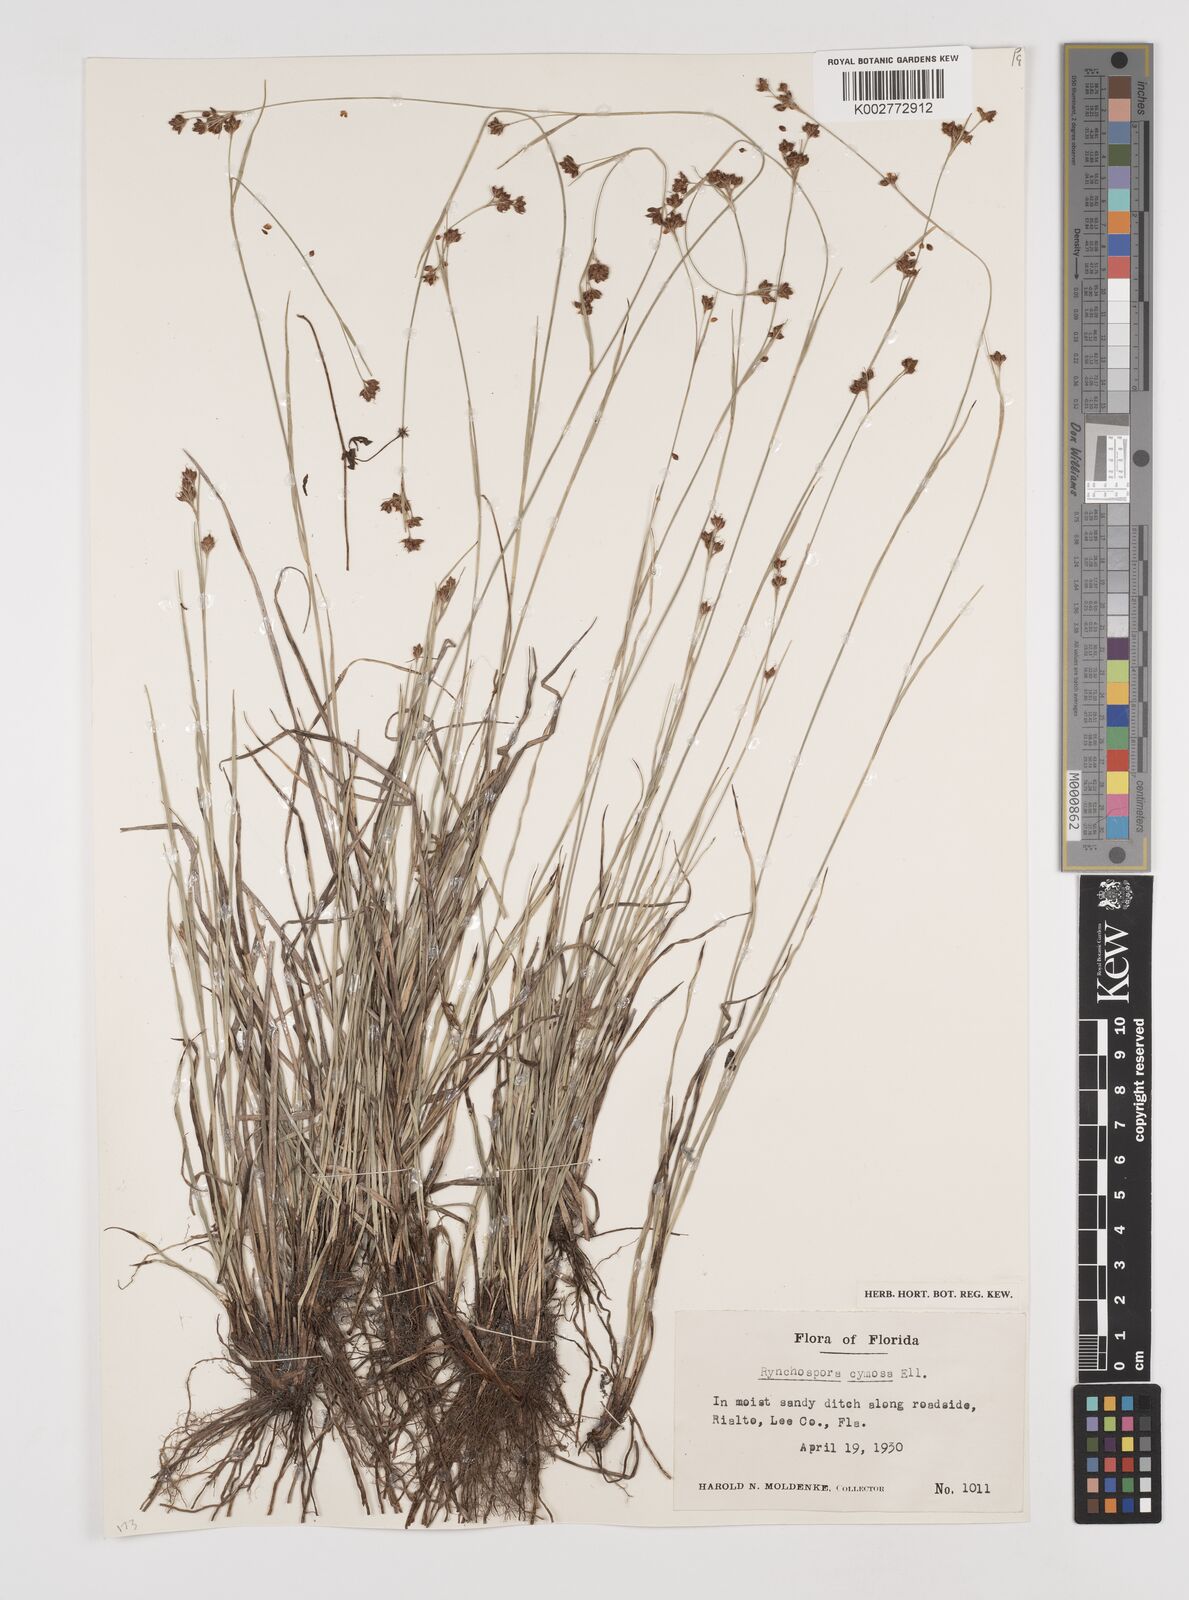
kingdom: Plantae
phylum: Tracheophyta
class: Liliopsida
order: Poales
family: Cyperaceae
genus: Scirpus
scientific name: Scirpus polyphyllus
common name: Leafy bulrush
